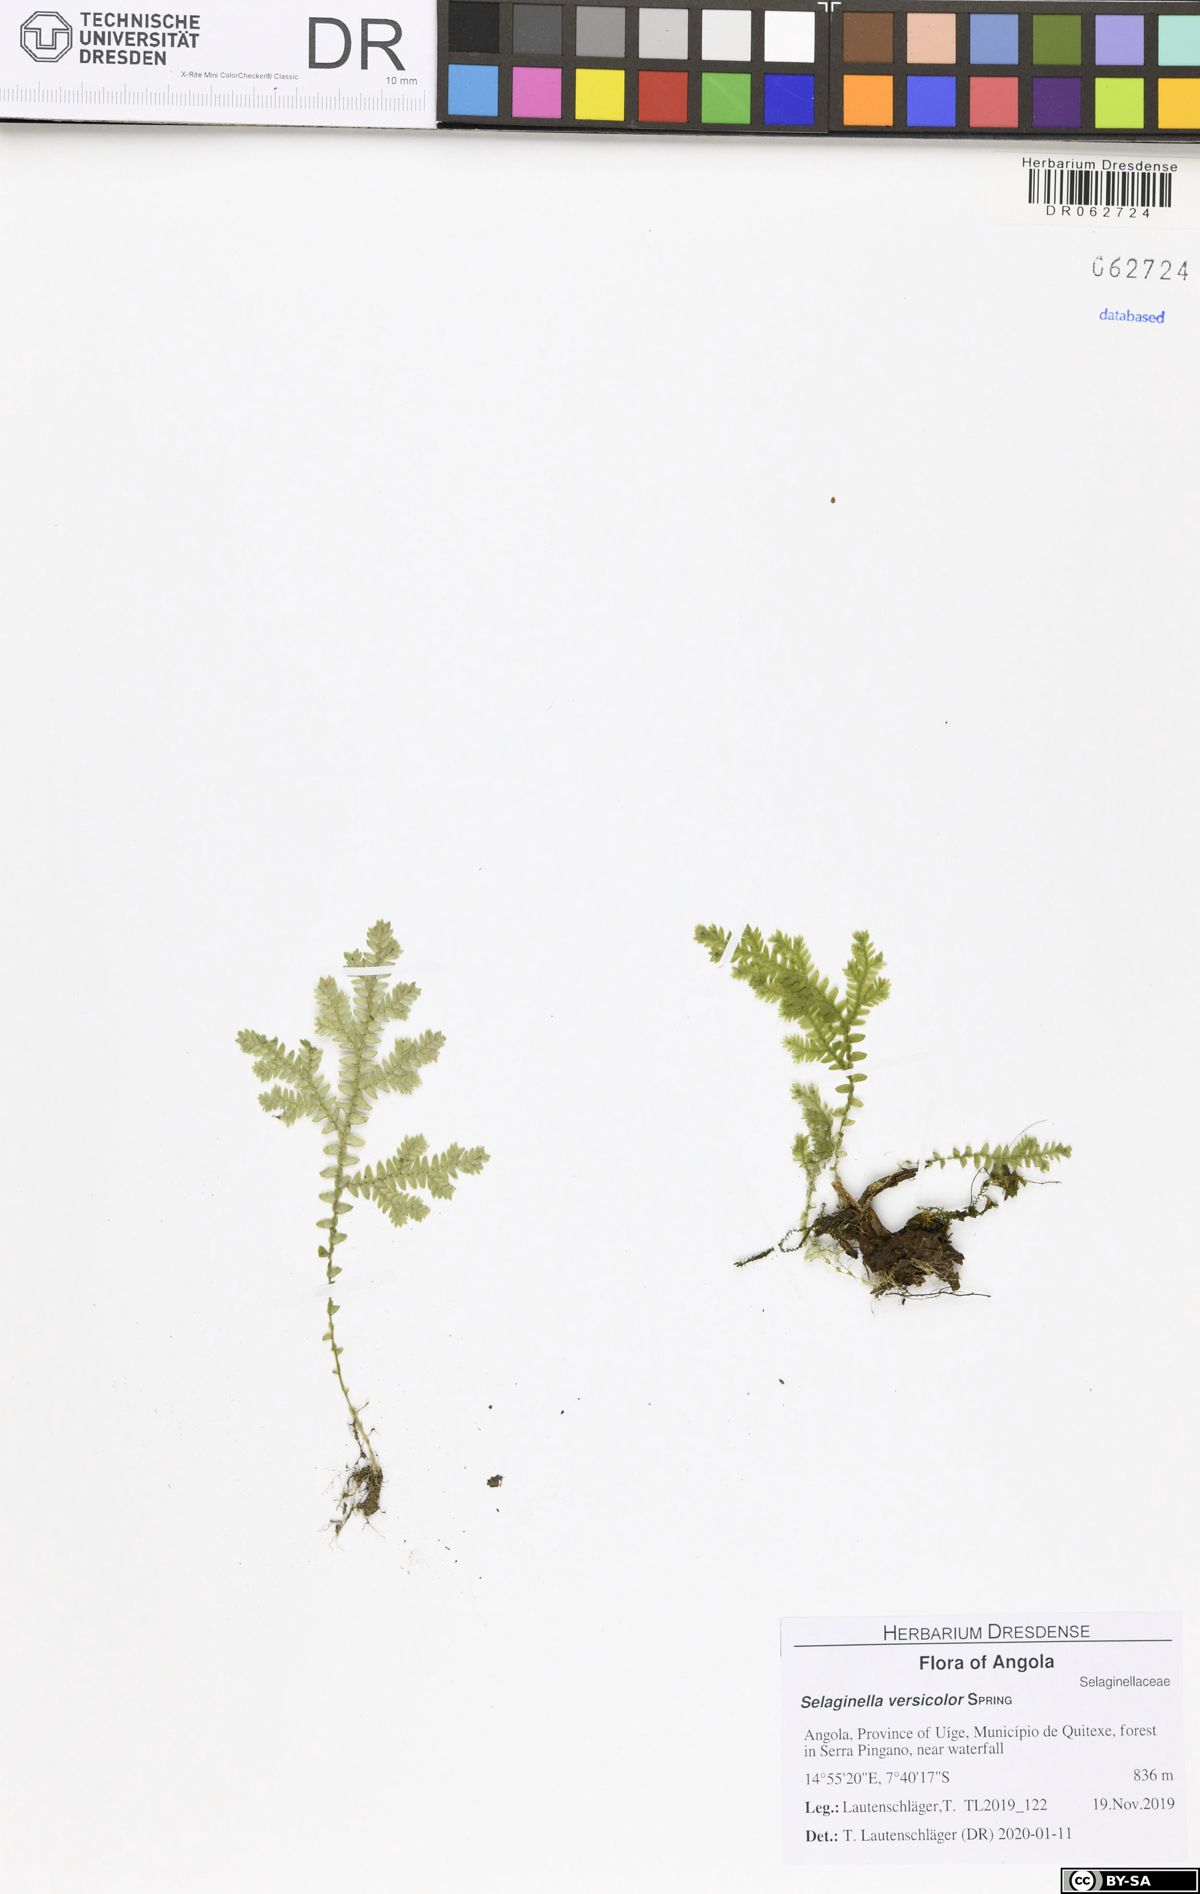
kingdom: Plantae
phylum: Tracheophyta
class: Lycopodiopsida
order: Selaginellales
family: Selaginellaceae
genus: Selaginella
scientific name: Selaginella versicolor
